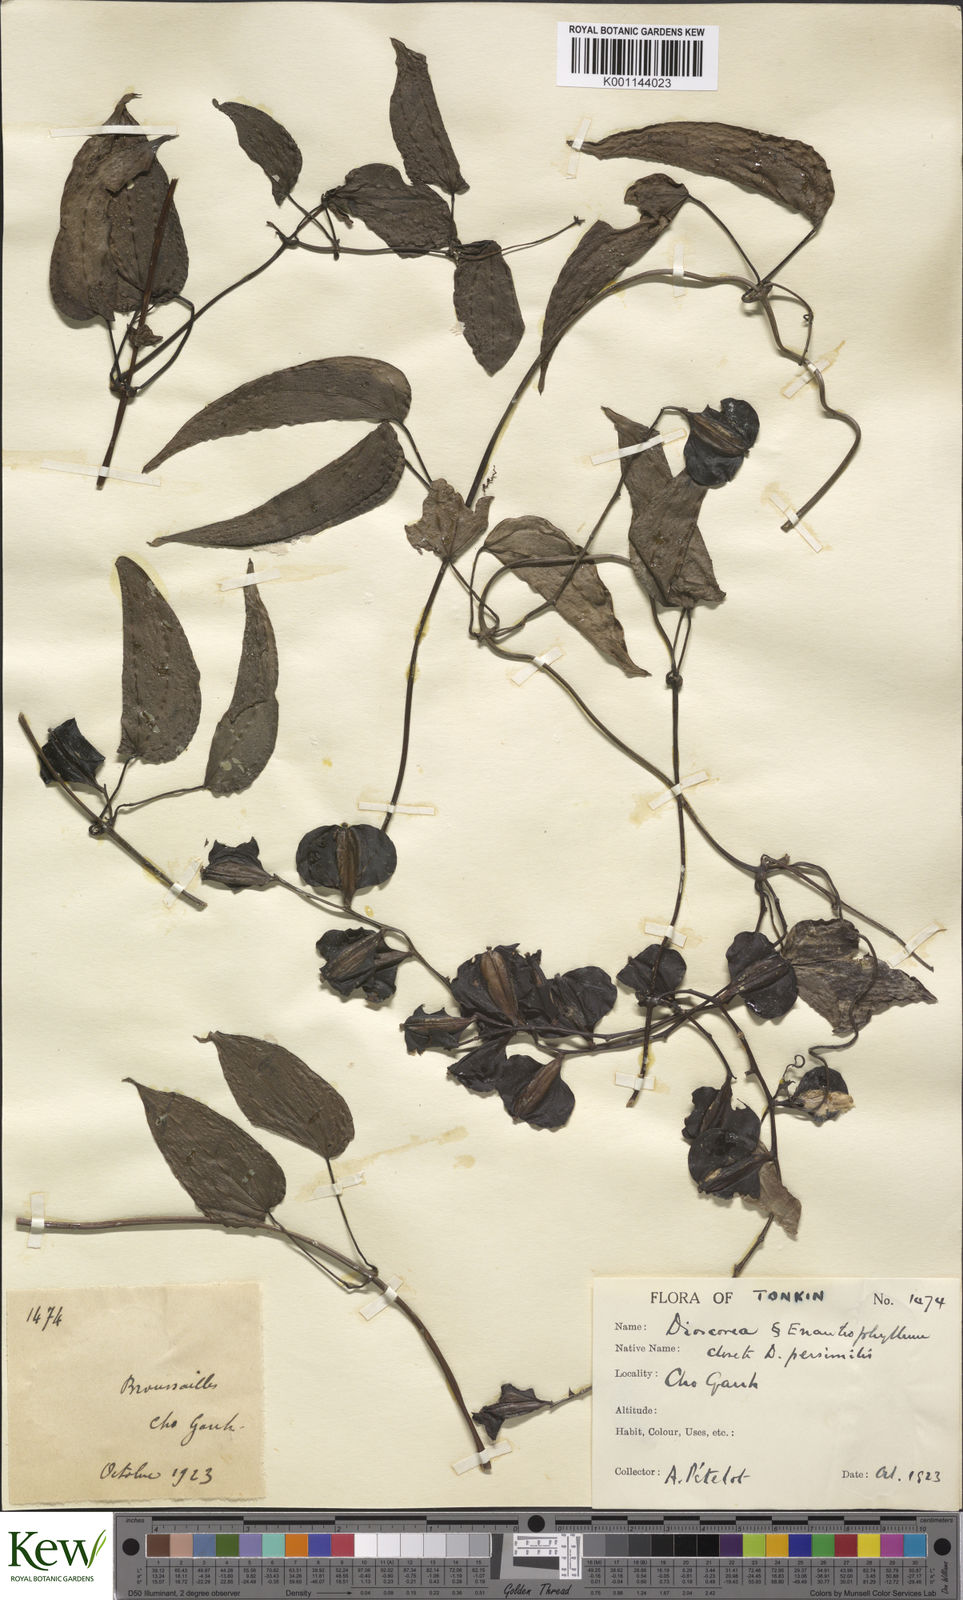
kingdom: Plantae
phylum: Tracheophyta
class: Liliopsida
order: Dioscoreales
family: Dioscoreaceae
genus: Dioscorea
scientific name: Dioscorea hamiltonii
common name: Mountain yam
